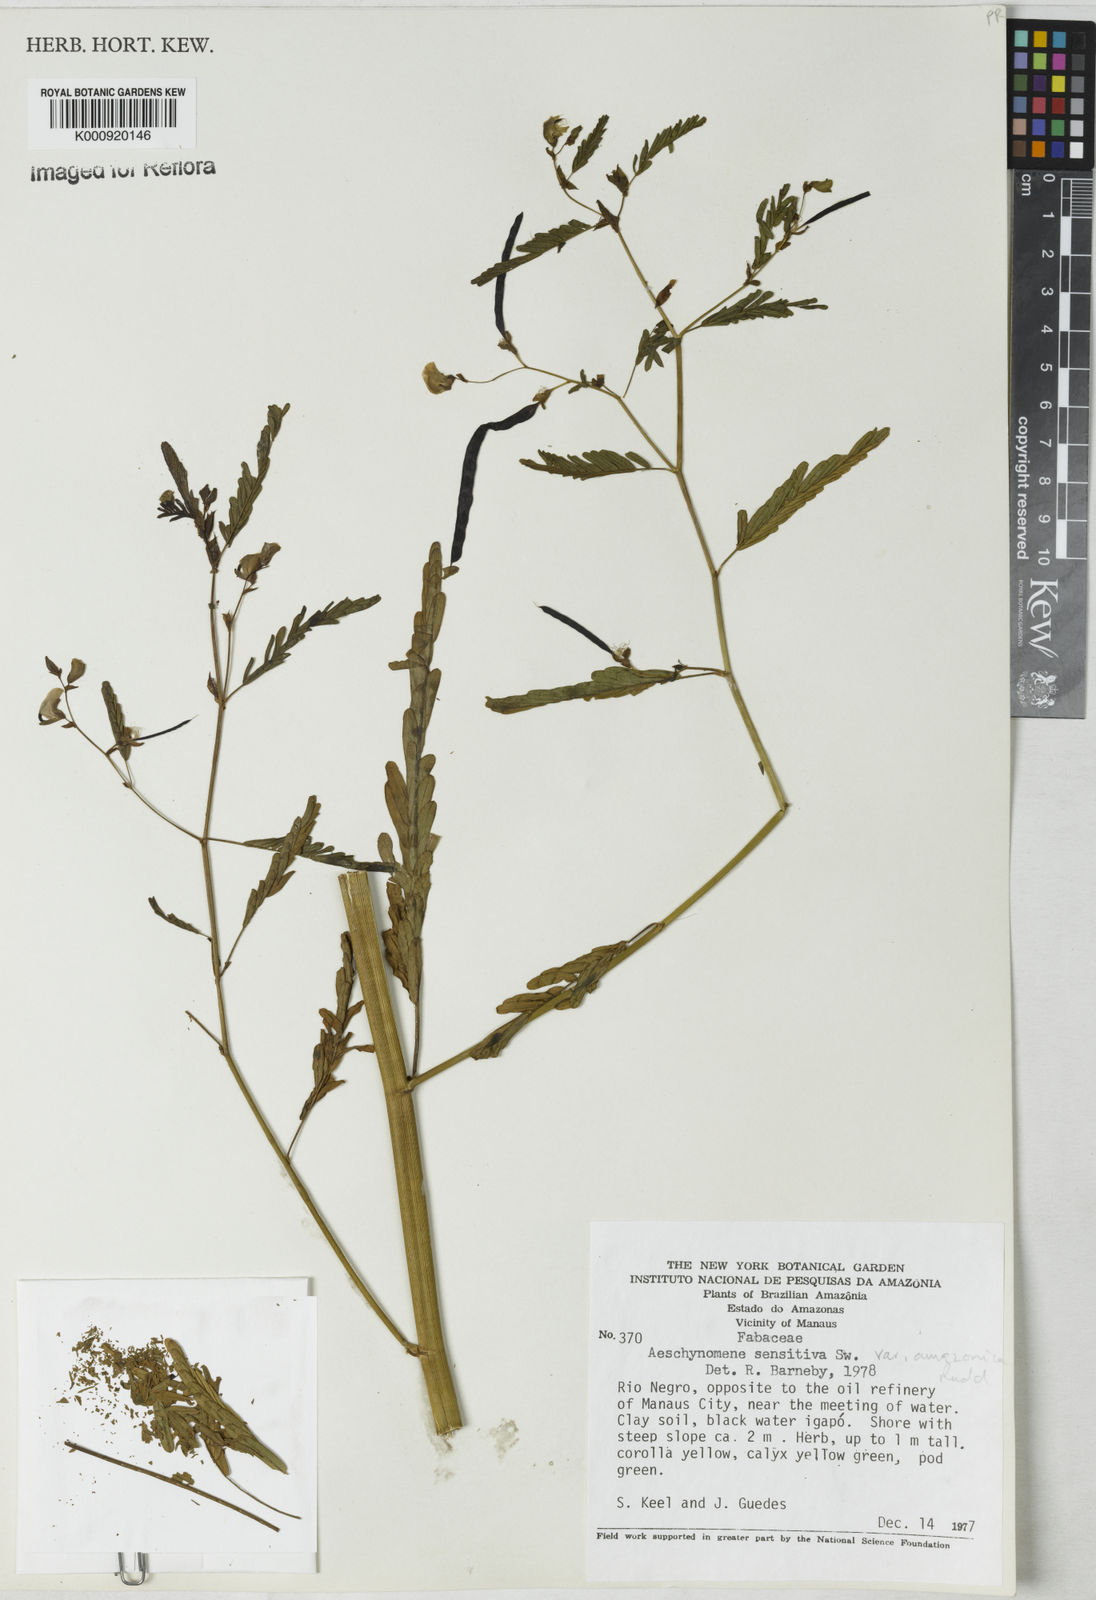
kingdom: Plantae
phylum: Tracheophyta
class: Magnoliopsida
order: Fabales
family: Fabaceae
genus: Aeschynomene
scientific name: Aeschynomene sensitiva
